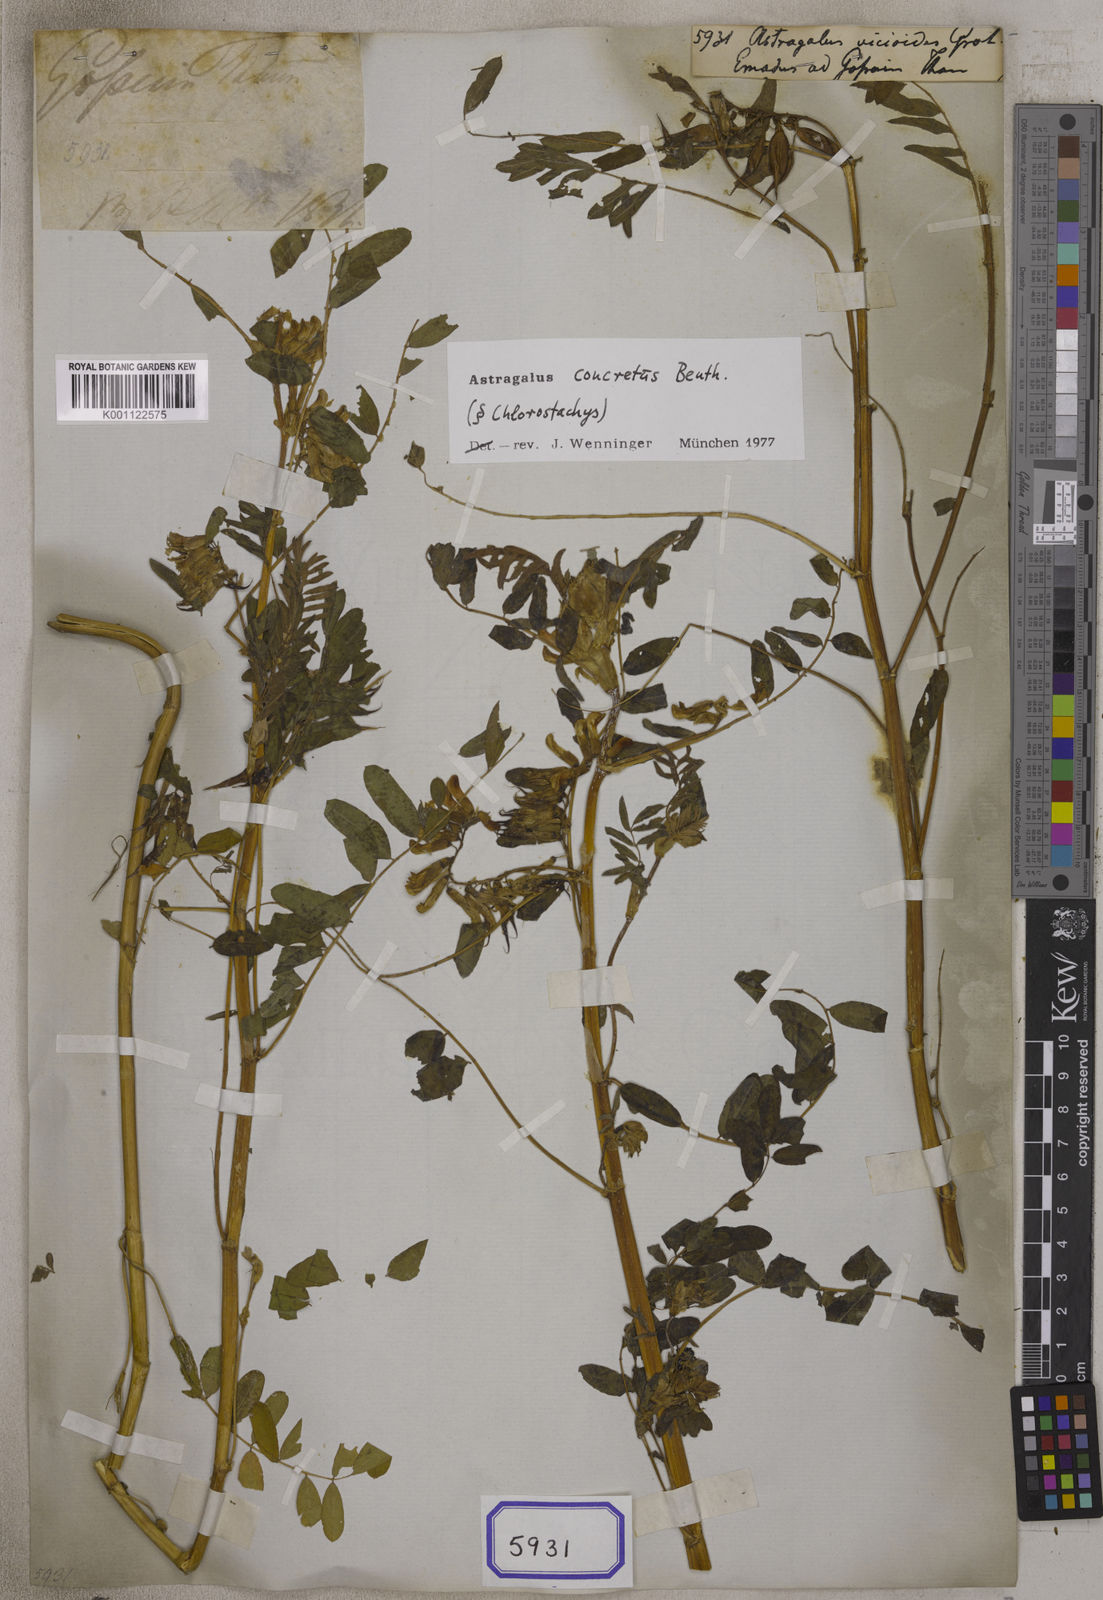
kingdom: Plantae
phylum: Tracheophyta
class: Magnoliopsida
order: Fabales
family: Fabaceae
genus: Astragalus
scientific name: Astragalus
